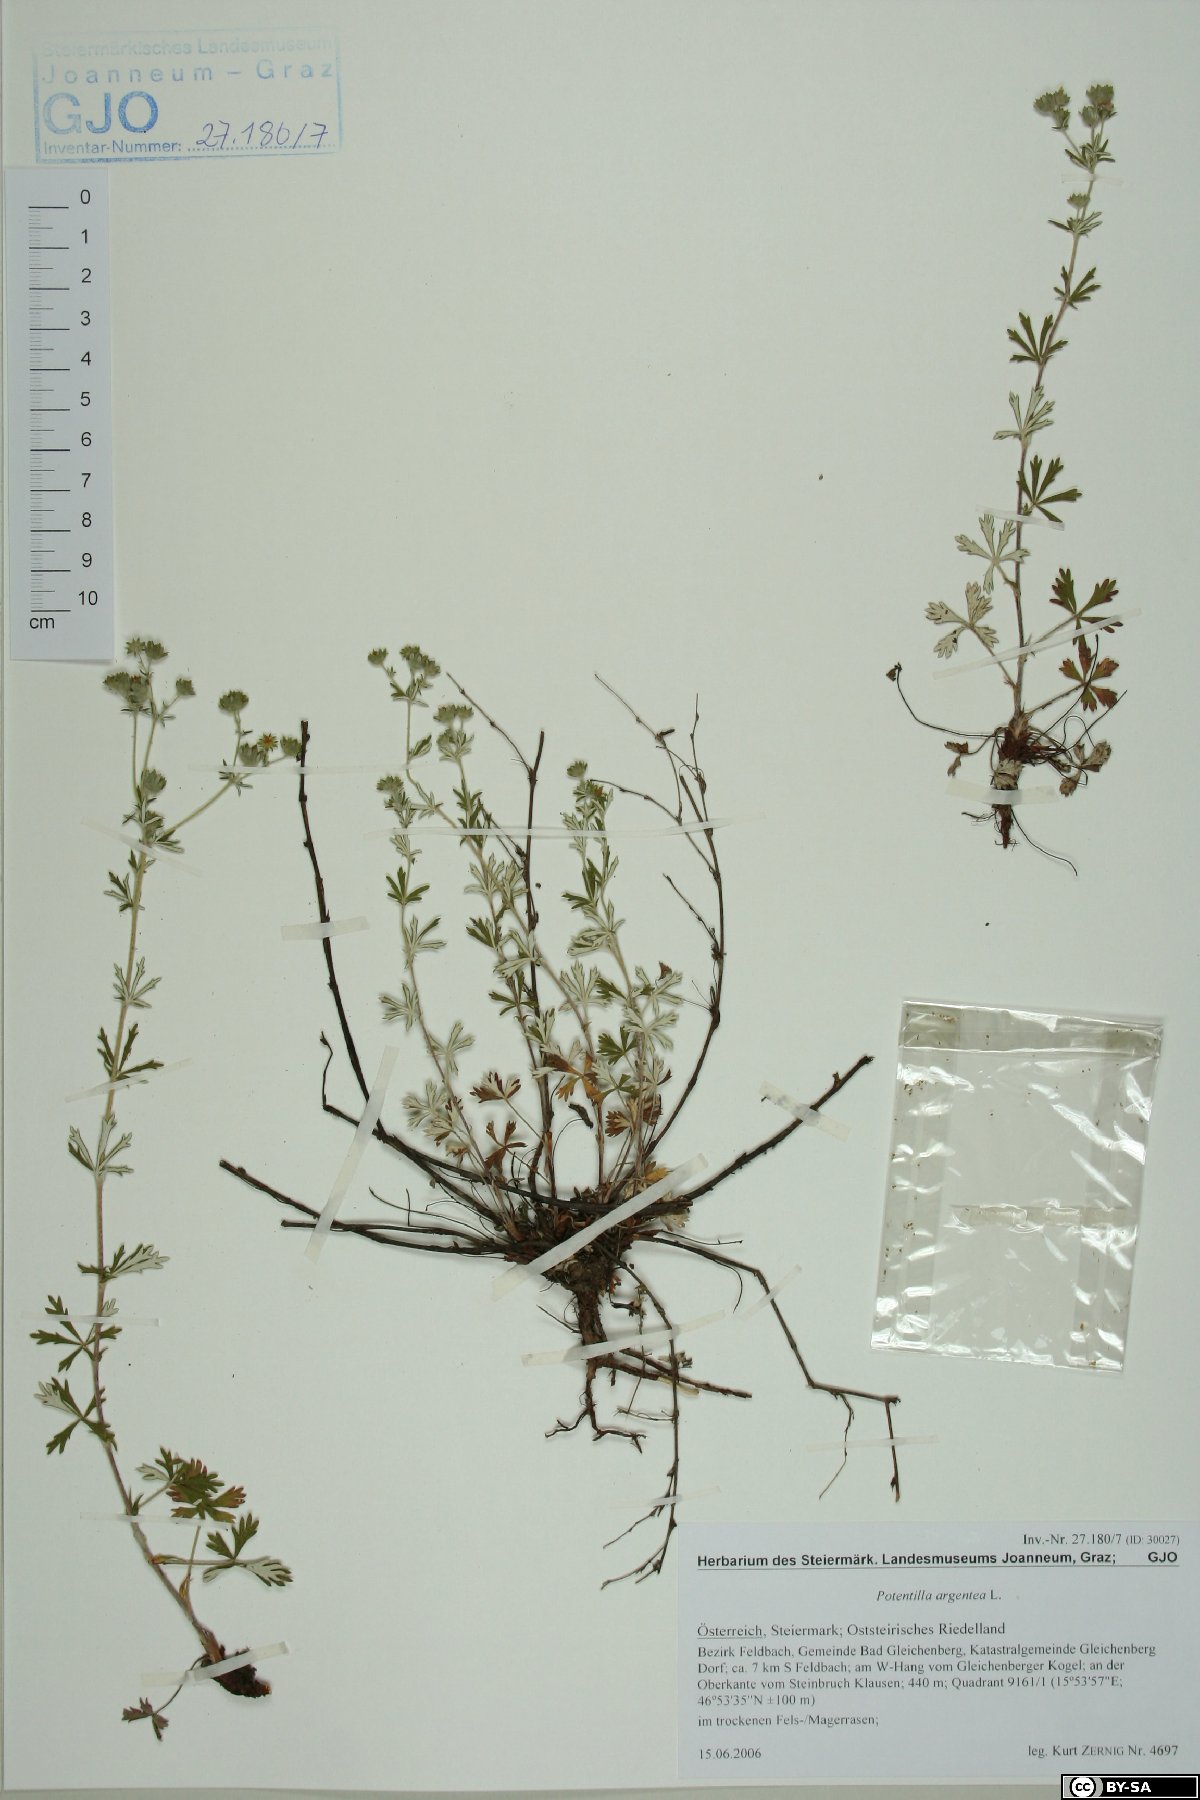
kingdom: Plantae
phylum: Tracheophyta
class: Magnoliopsida
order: Rosales
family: Rosaceae
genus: Potentilla
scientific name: Potentilla argentea
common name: Hoary cinquefoil
